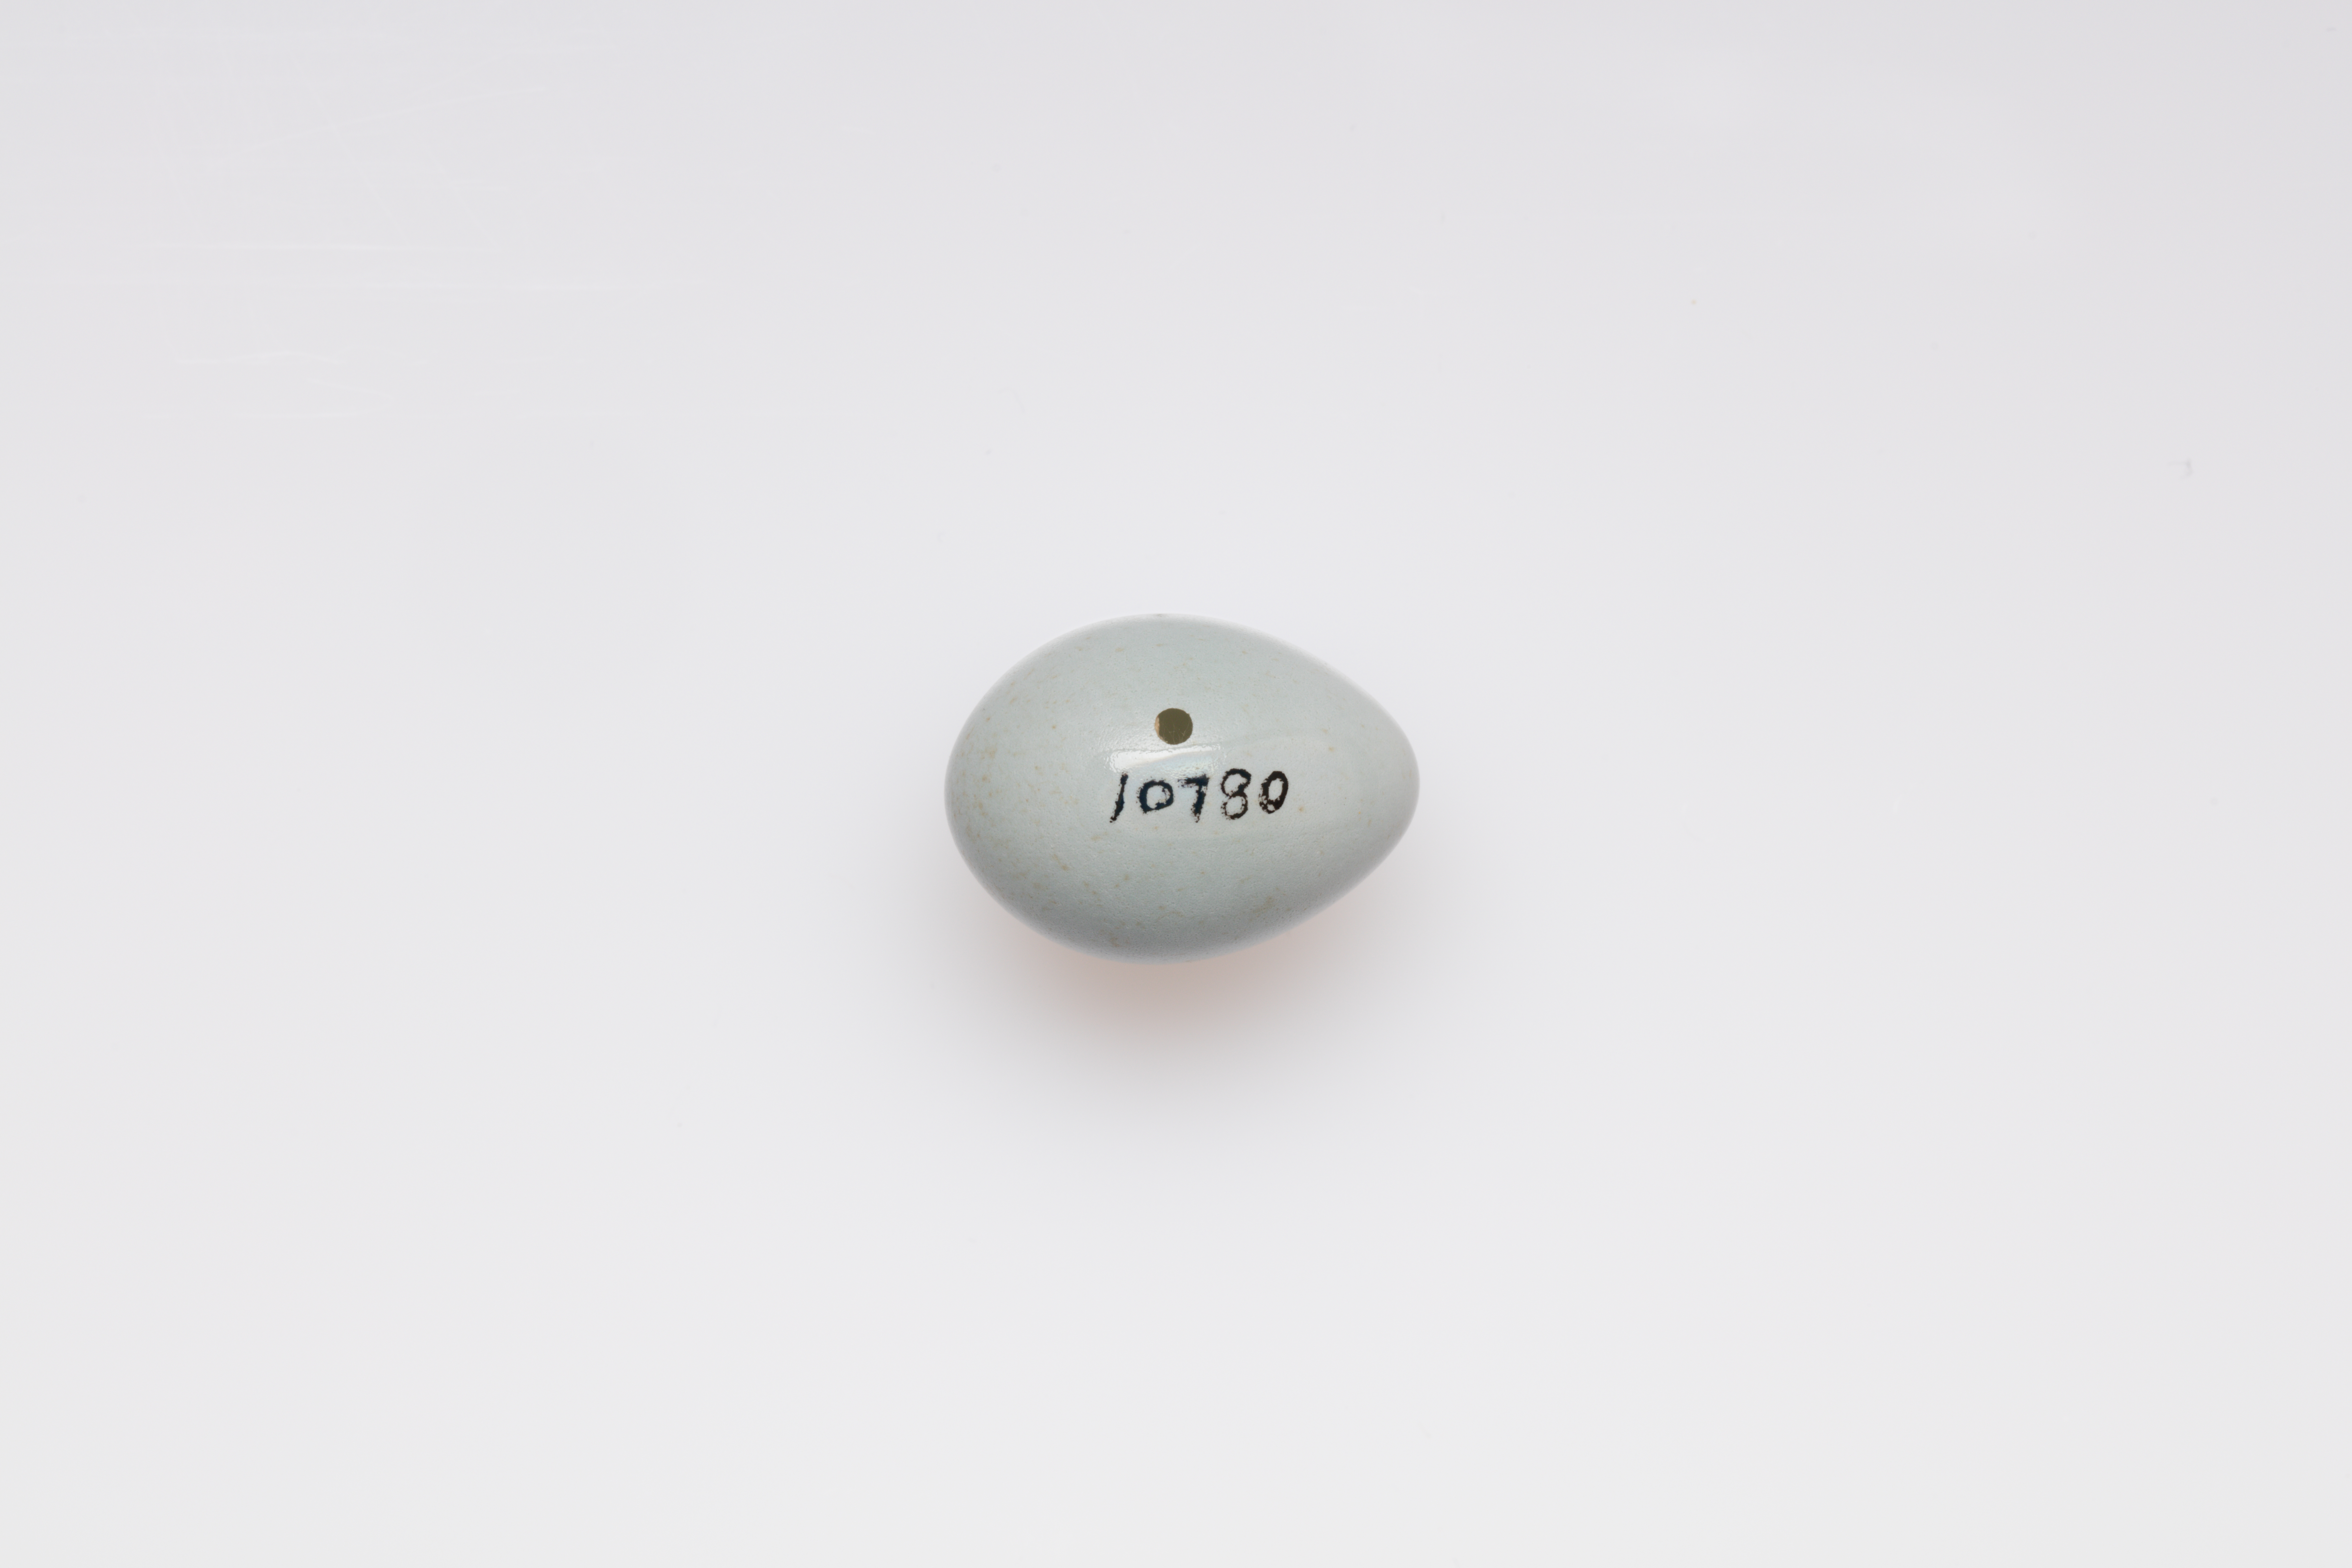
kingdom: Animalia
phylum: Chordata
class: Aves
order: Passeriformes
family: Muscicapidae
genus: Saxicola
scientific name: Saxicola torquatus
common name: African stonechat
